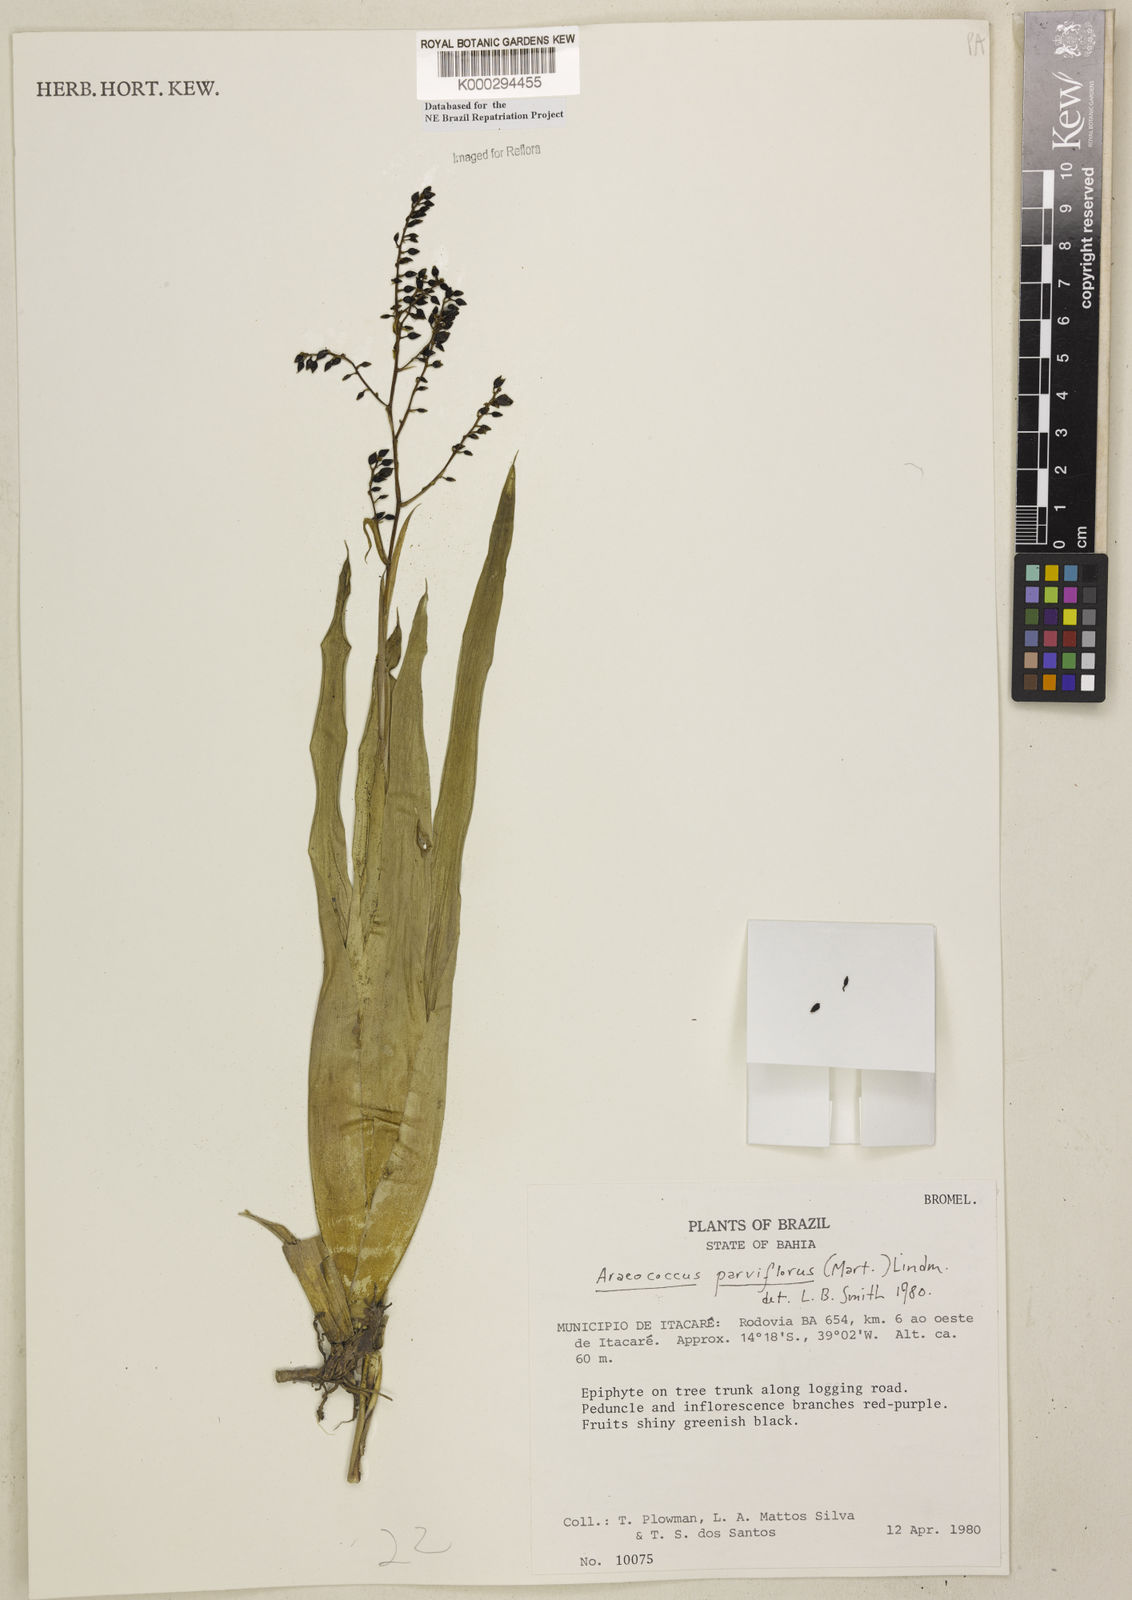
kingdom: Plantae
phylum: Tracheophyta
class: Liliopsida
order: Poales
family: Bromeliaceae
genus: Pseudaraeococcus
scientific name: Pseudaraeococcus parviflorus
